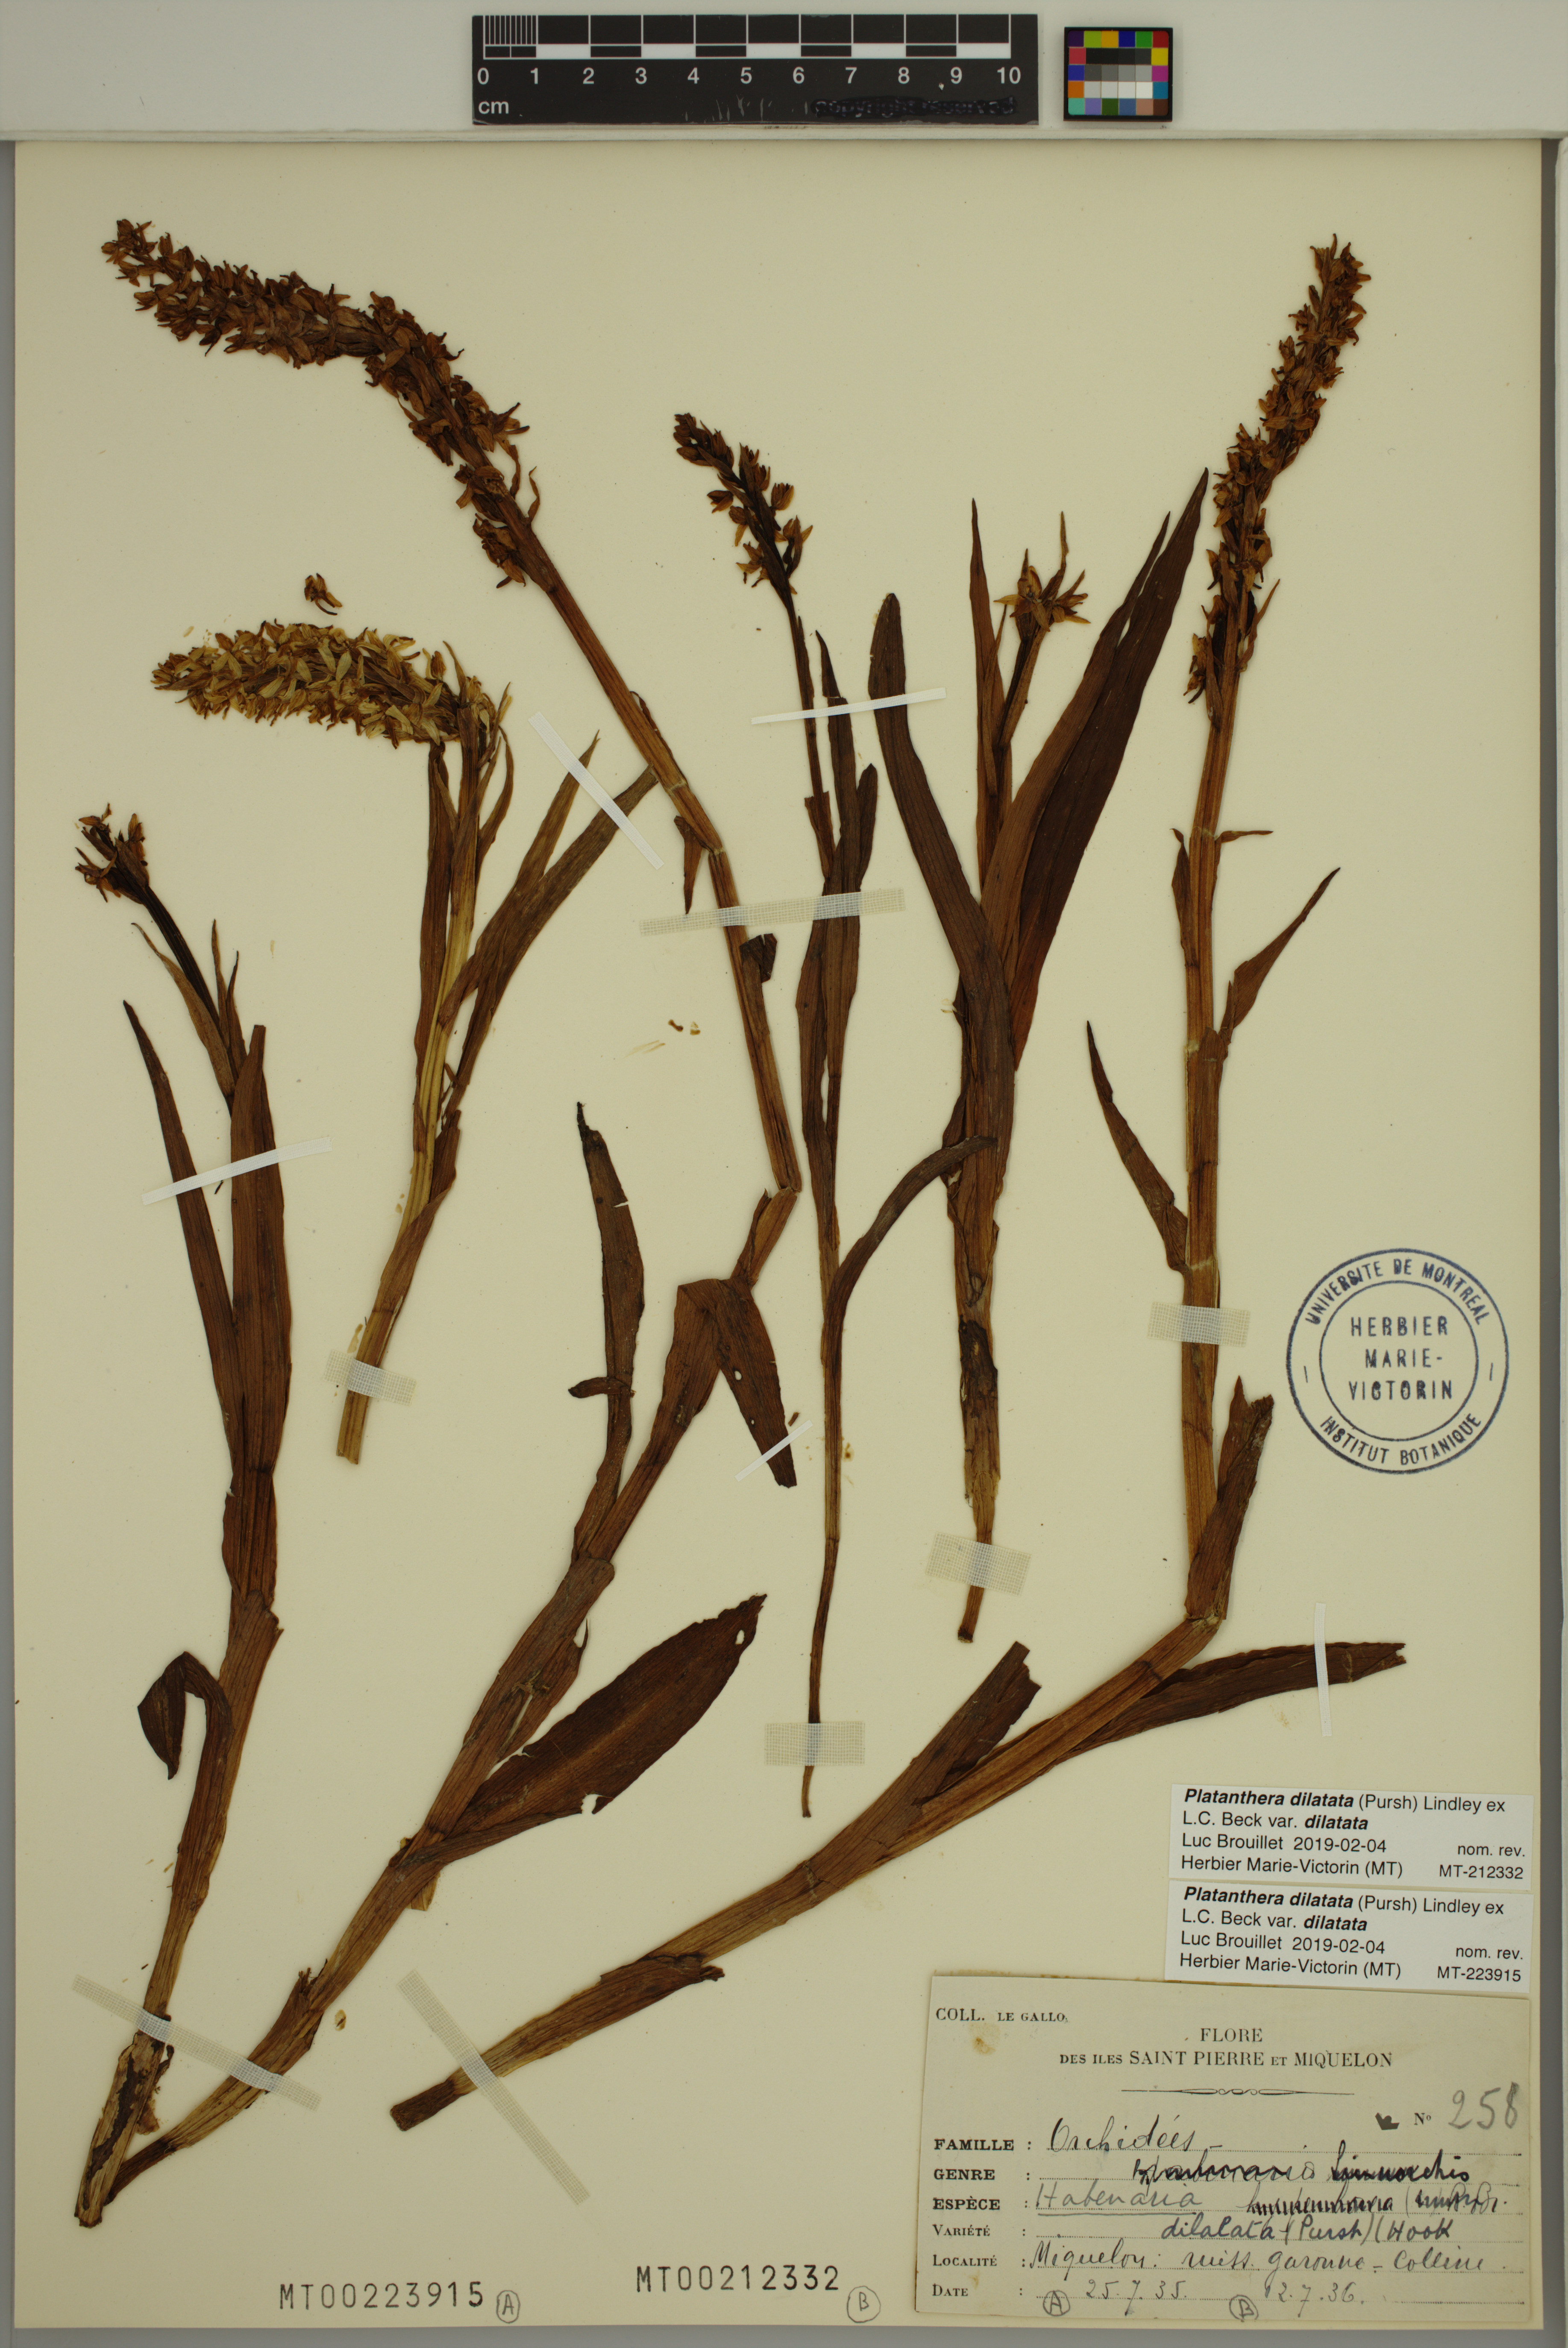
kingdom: Plantae
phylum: Tracheophyta
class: Liliopsida
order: Asparagales
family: Orchidaceae
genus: Platanthera
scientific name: Platanthera dilatata
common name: Bog candles
